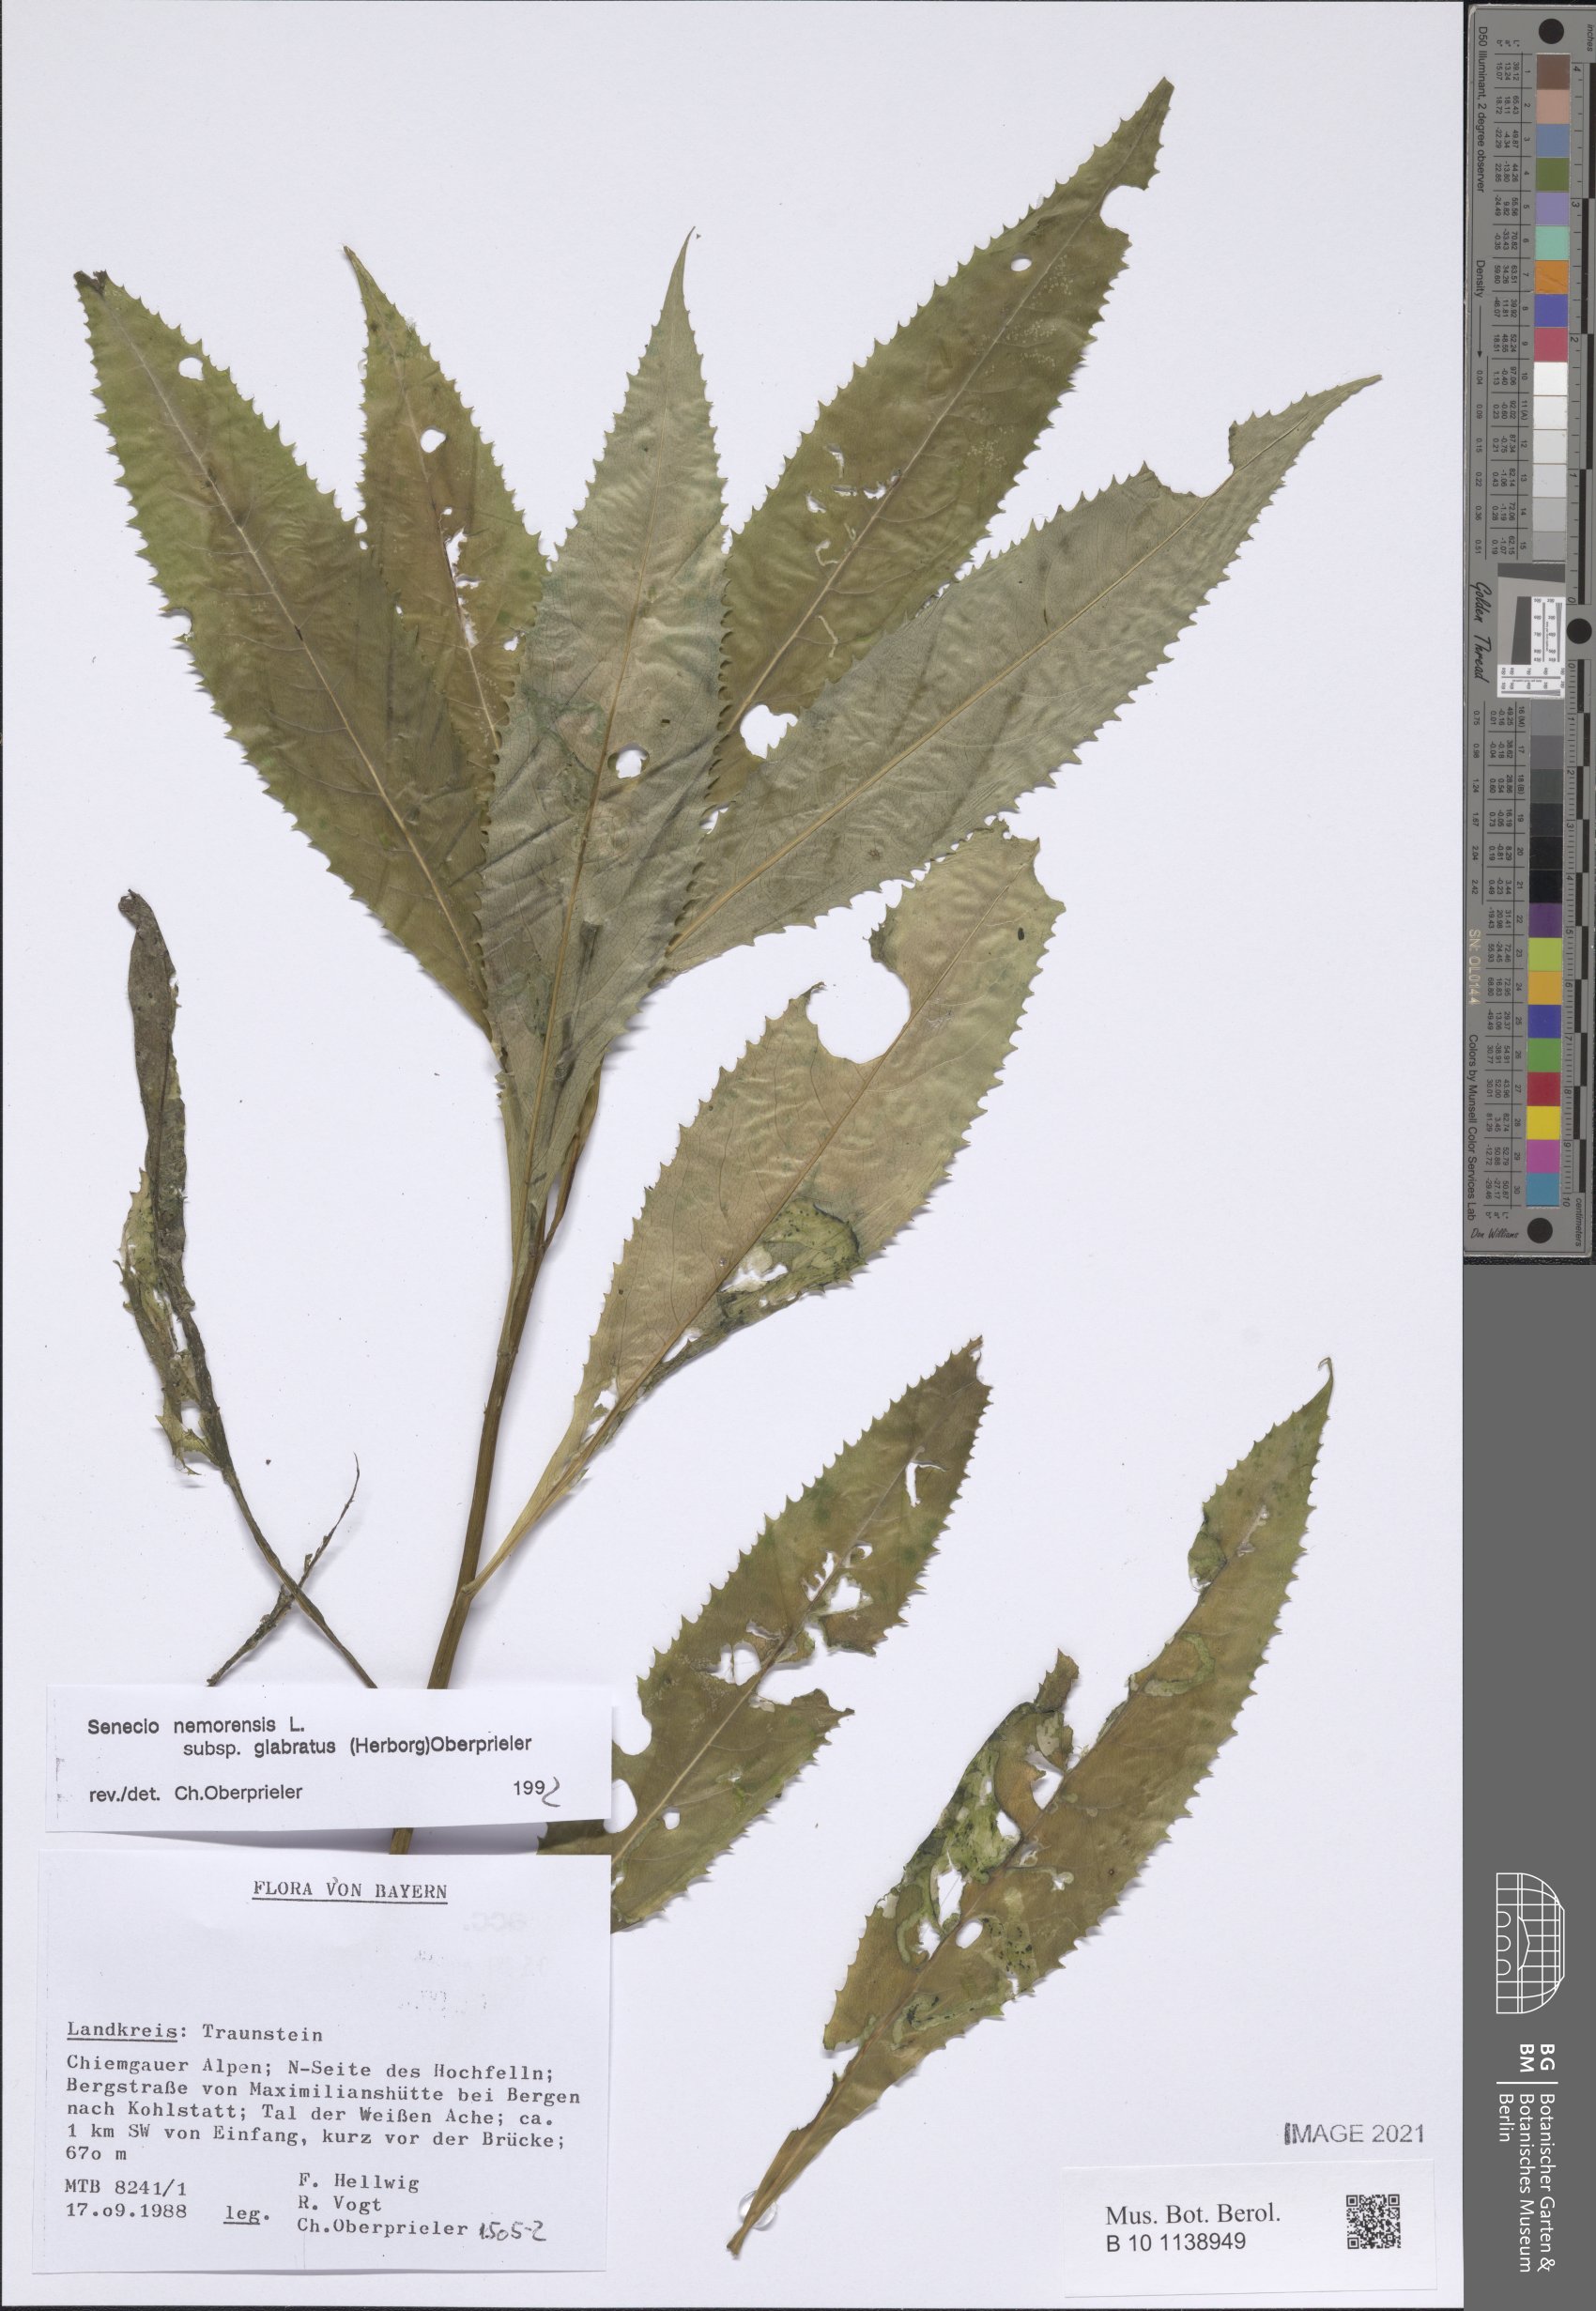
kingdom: Plantae
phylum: Tracheophyta
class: Magnoliopsida
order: Asterales
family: Asteraceae
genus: Senecio
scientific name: Senecio germanicus
